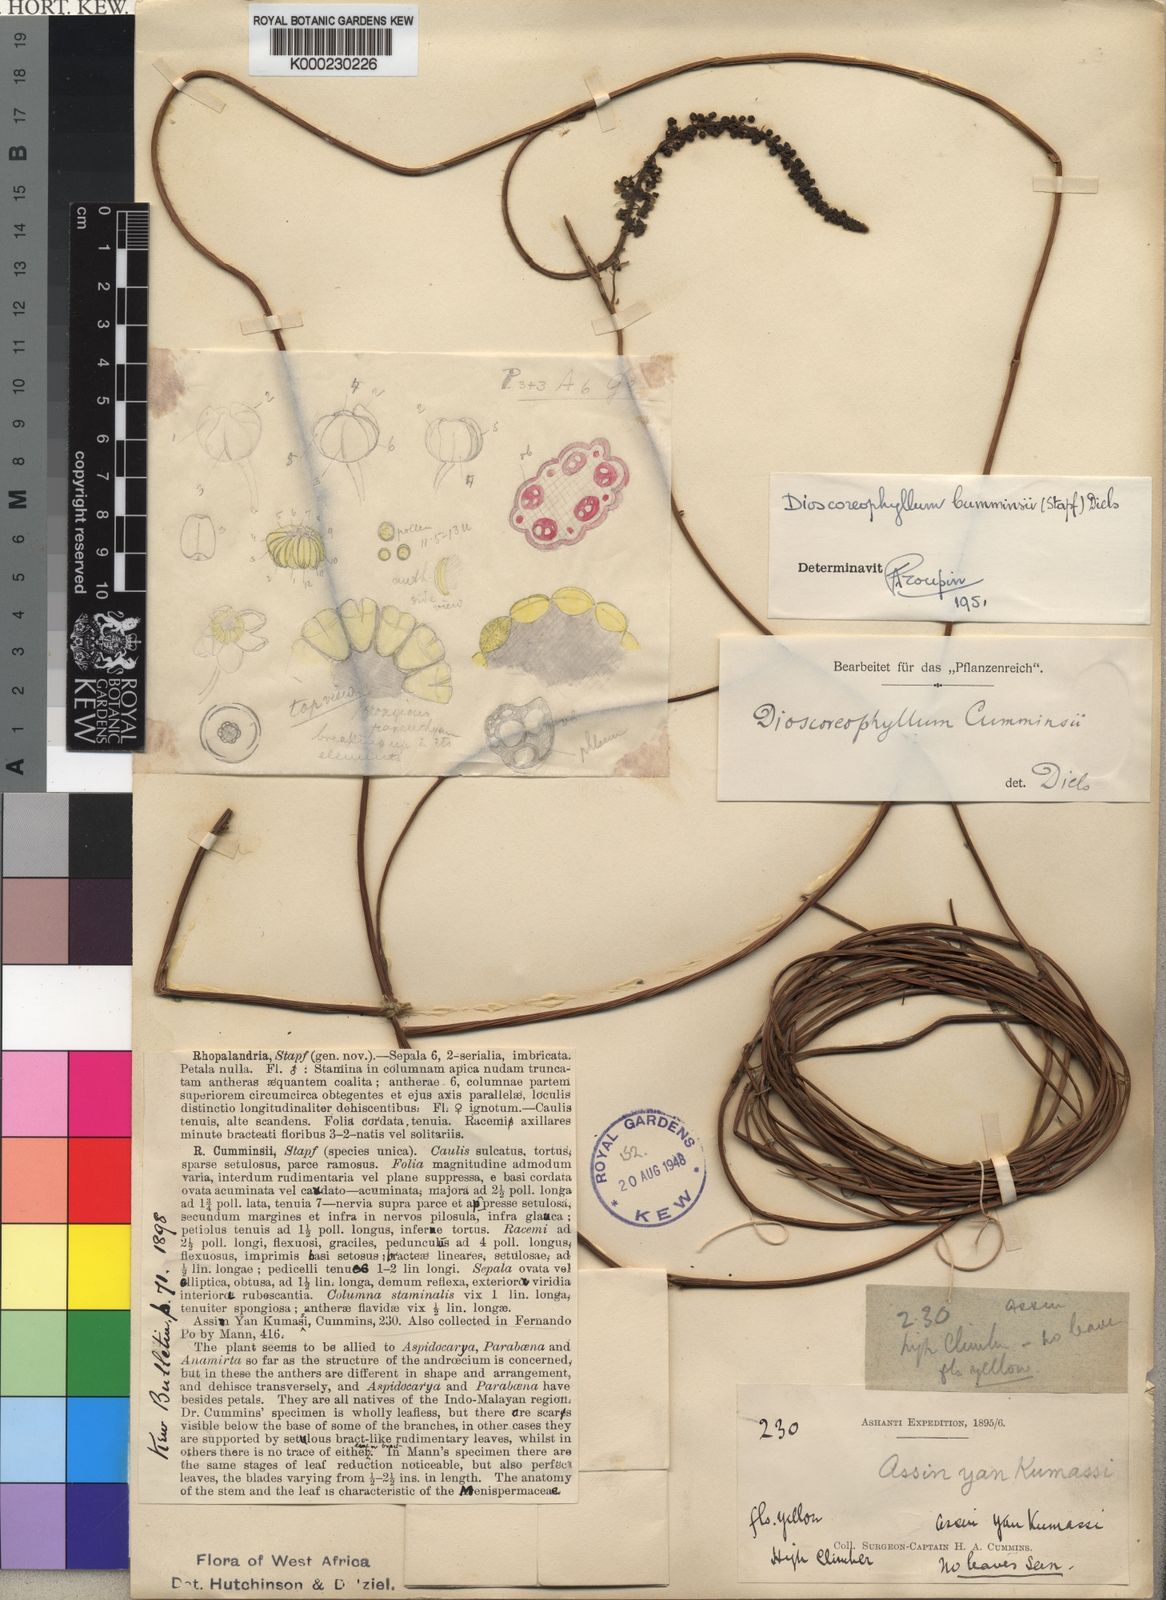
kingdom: Plantae
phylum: Tracheophyta
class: Magnoliopsida
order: Ranunculales
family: Menispermaceae
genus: Dioscoreophyllum
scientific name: Dioscoreophyllum volkensii
